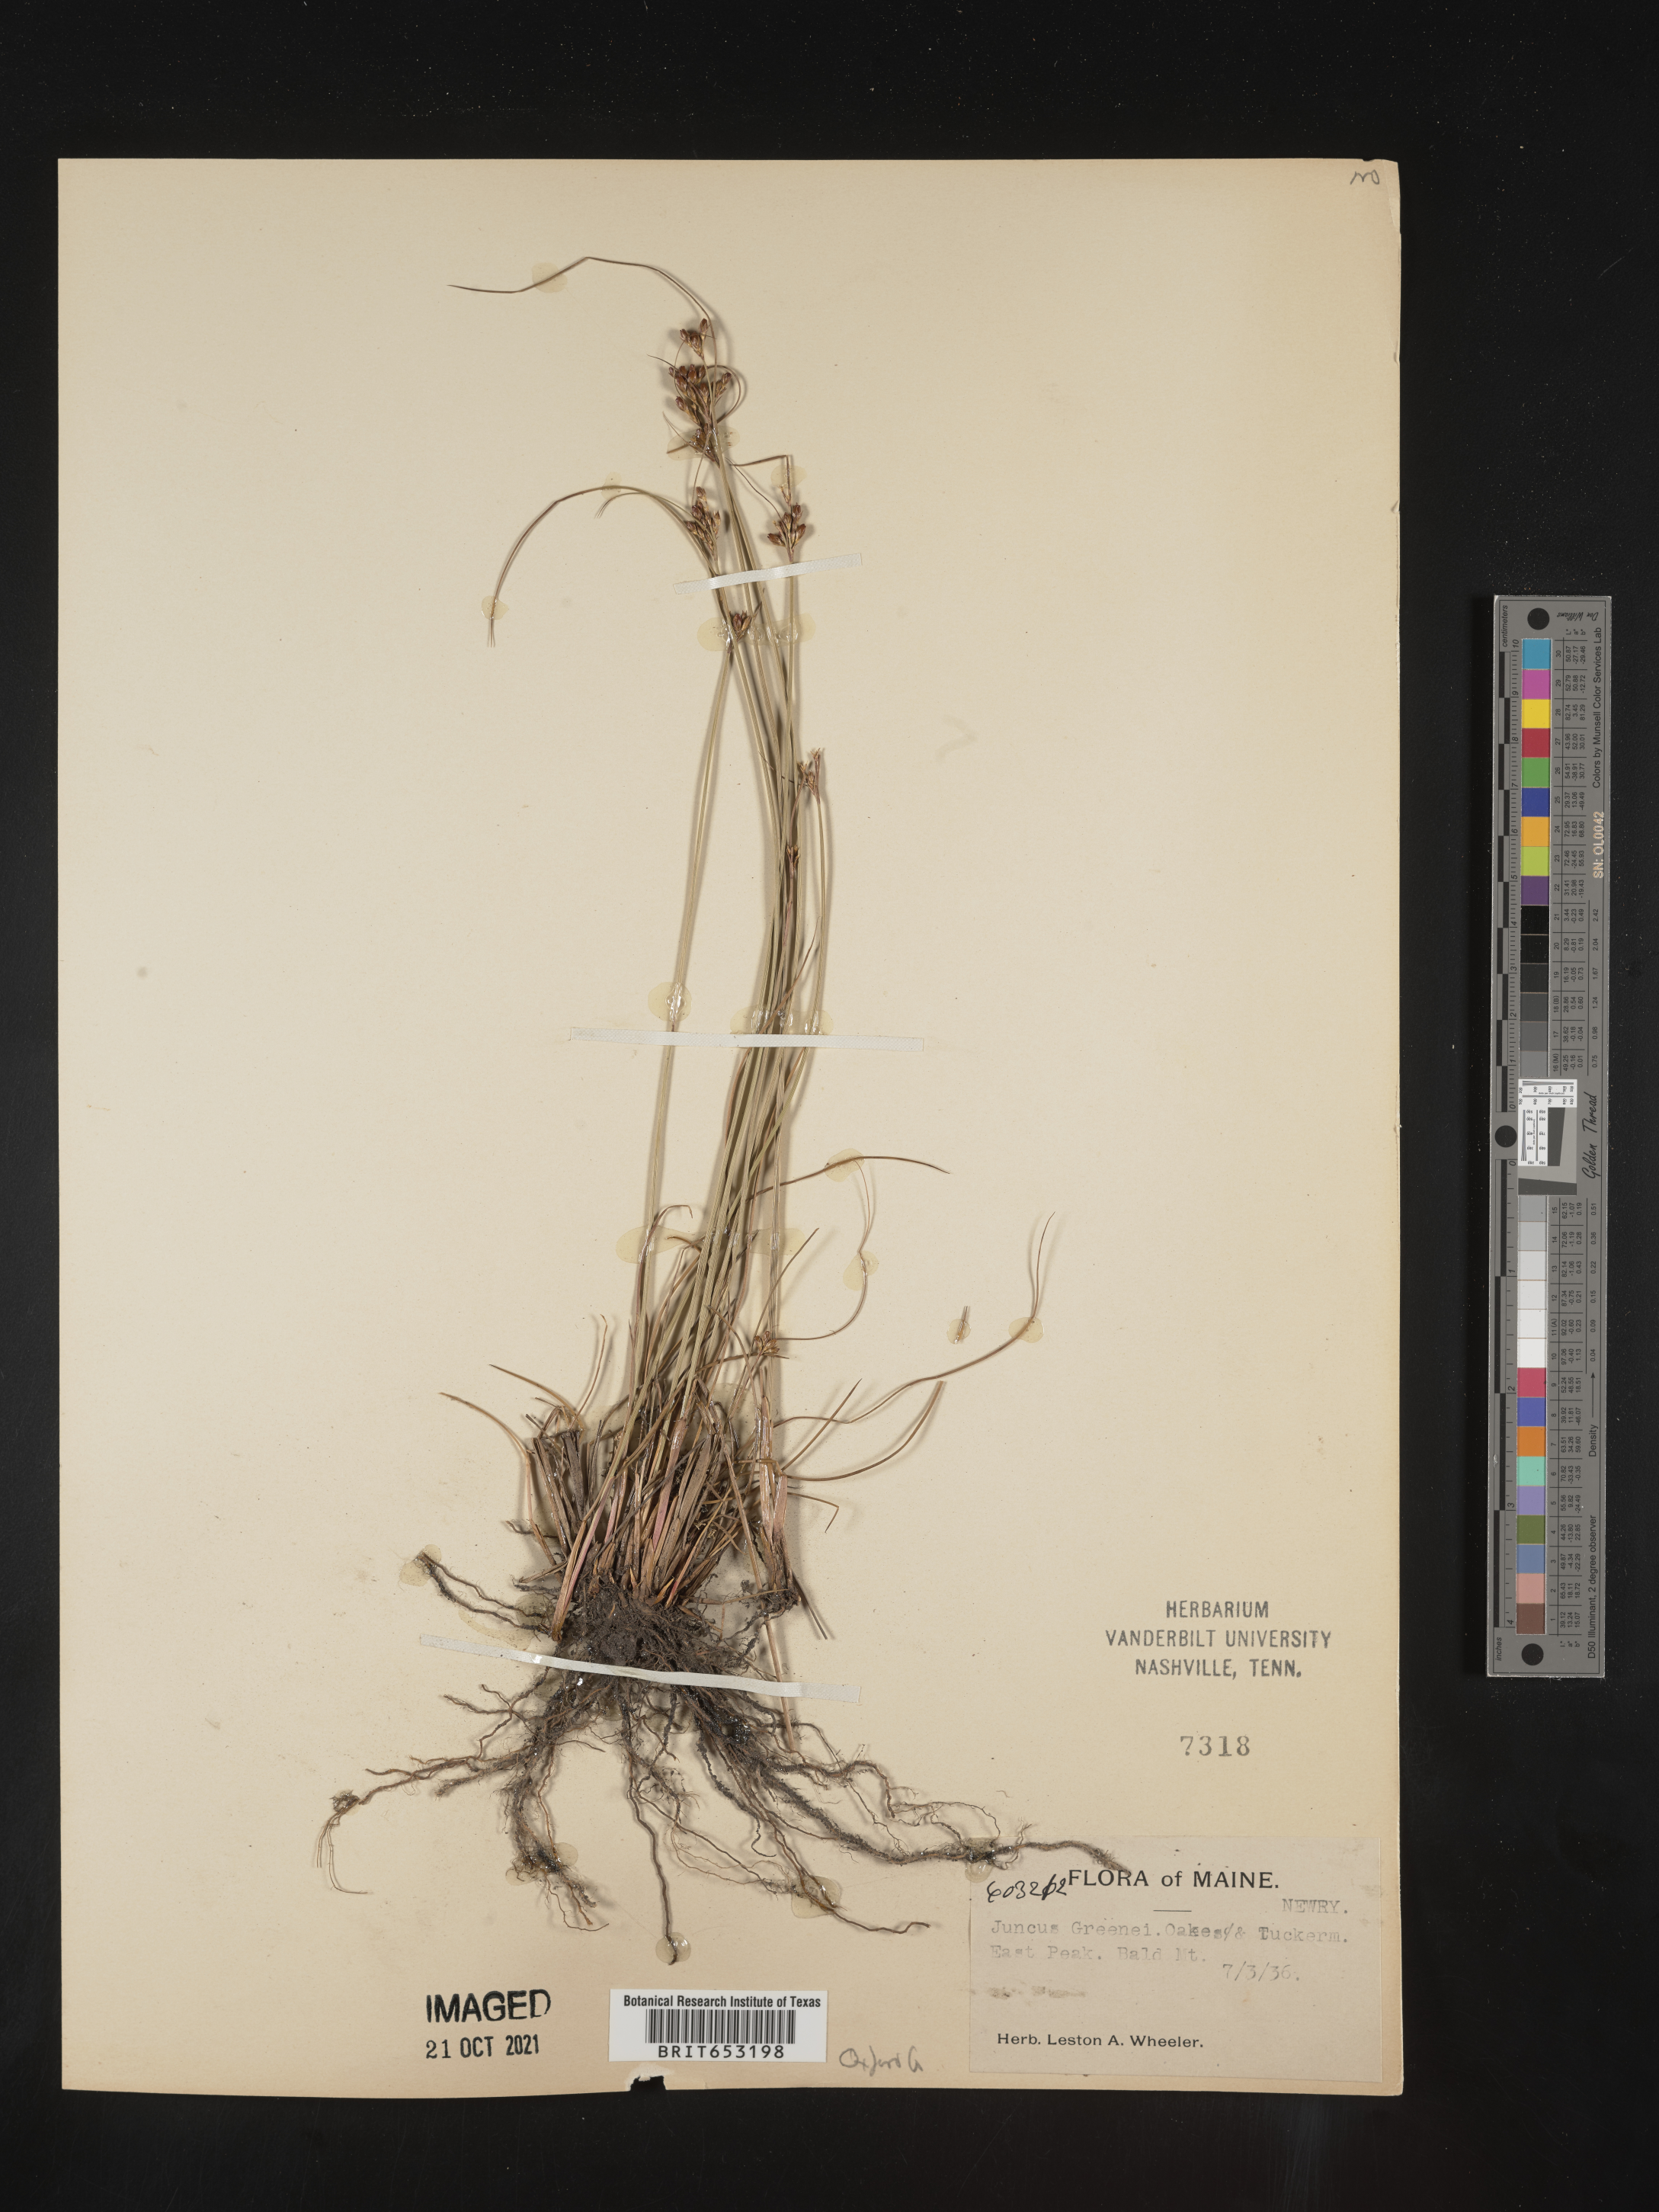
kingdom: Plantae
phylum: Tracheophyta
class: Liliopsida
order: Poales
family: Juncaceae
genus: Juncus
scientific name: Juncus greenei
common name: Greene's rush
